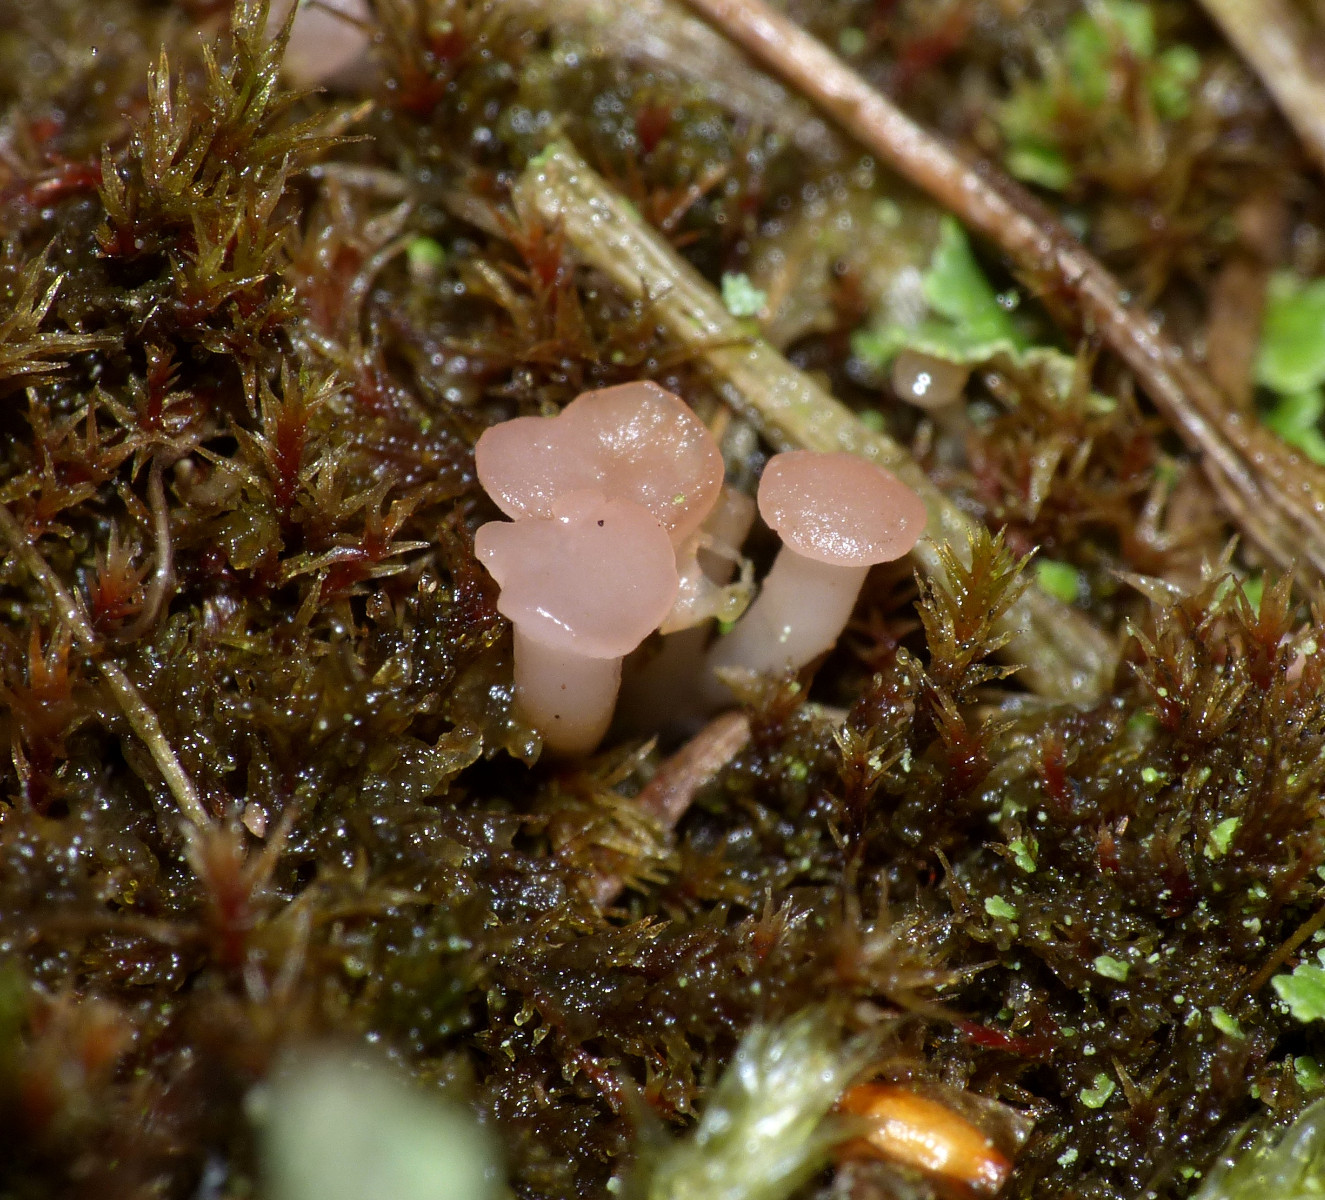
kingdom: Fungi
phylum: Ascomycota
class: Leotiomycetes
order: Helotiales
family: Hyaloscyphaceae
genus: Roseodiscus
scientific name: Roseodiscus formosus
